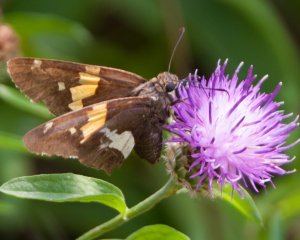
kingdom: Animalia
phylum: Arthropoda
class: Insecta
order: Lepidoptera
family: Hesperiidae
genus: Epargyreus
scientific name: Epargyreus clarus
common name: Silver-spotted Skipper
